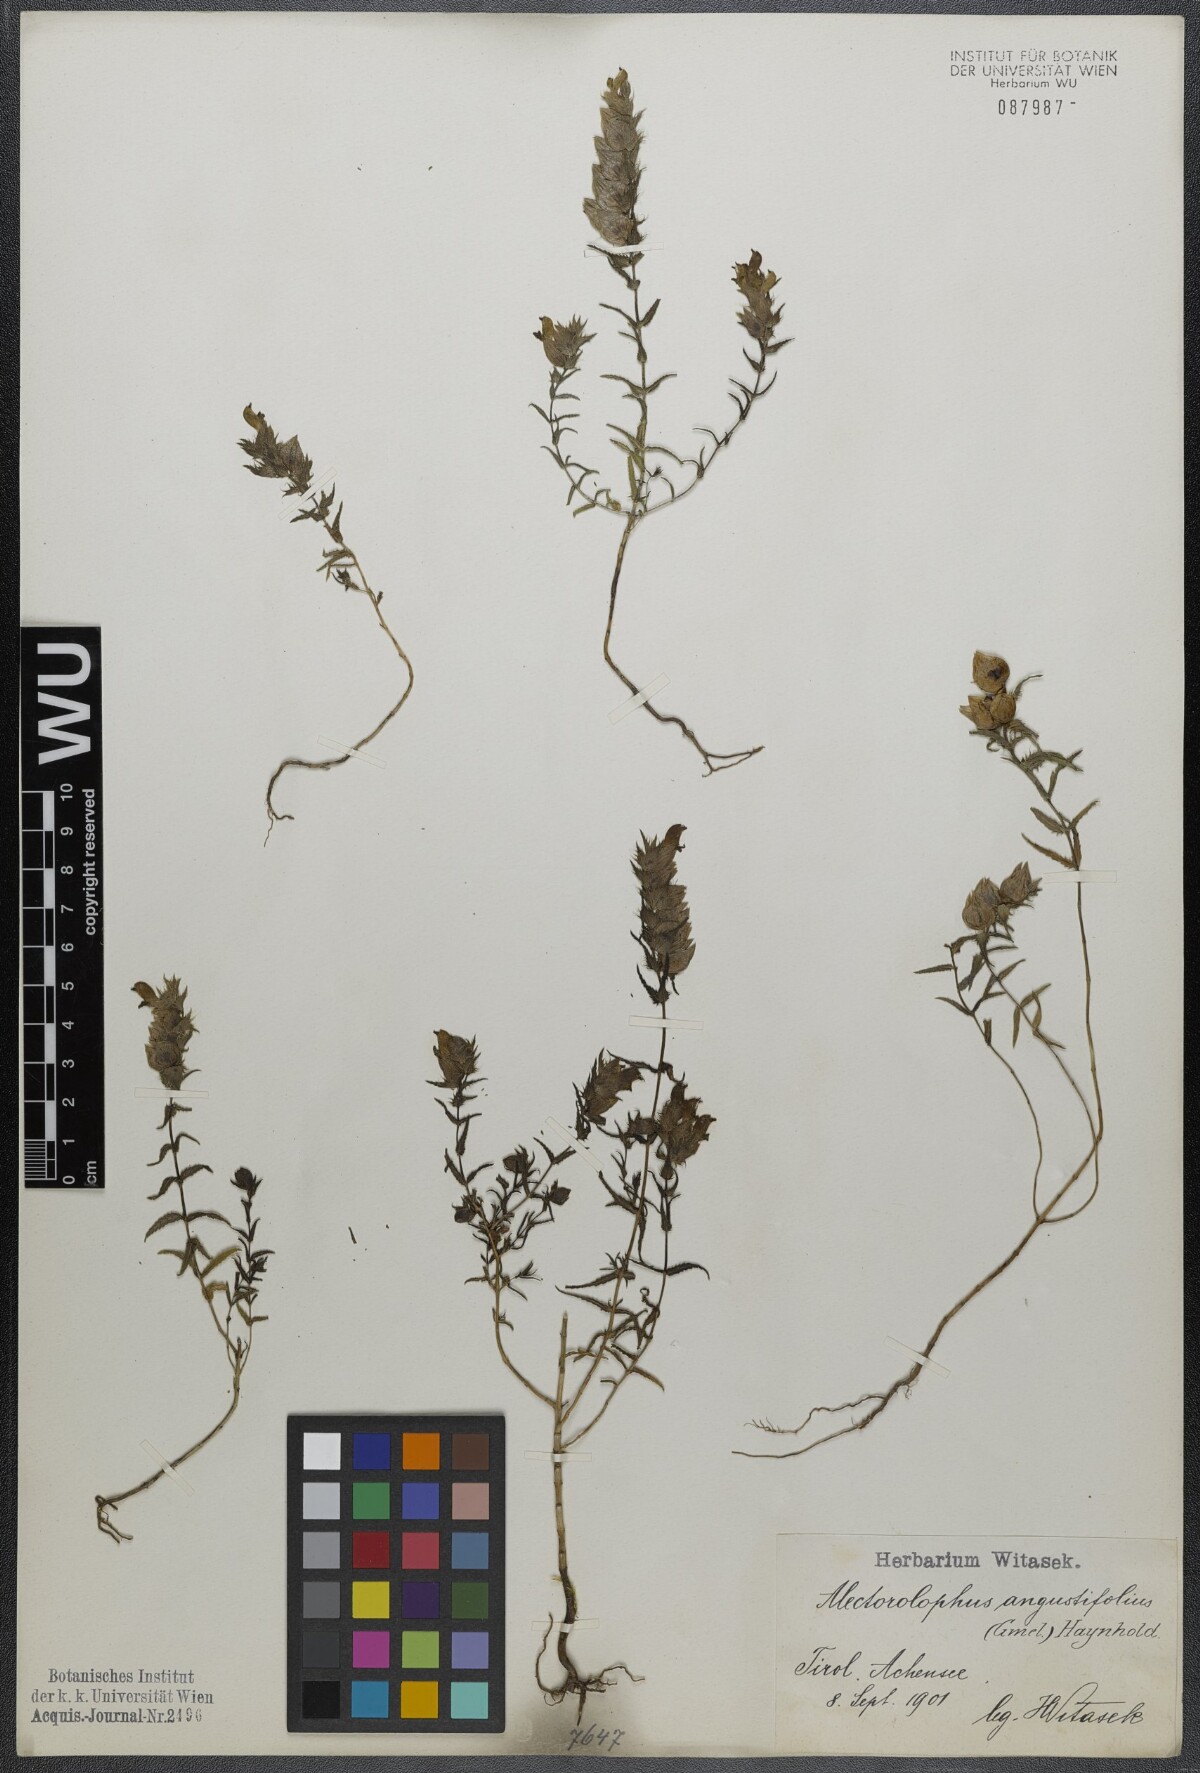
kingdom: Plantae
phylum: Tracheophyta
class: Magnoliopsida
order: Lamiales
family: Orobanchaceae
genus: Rhinanthus
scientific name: Rhinanthus
